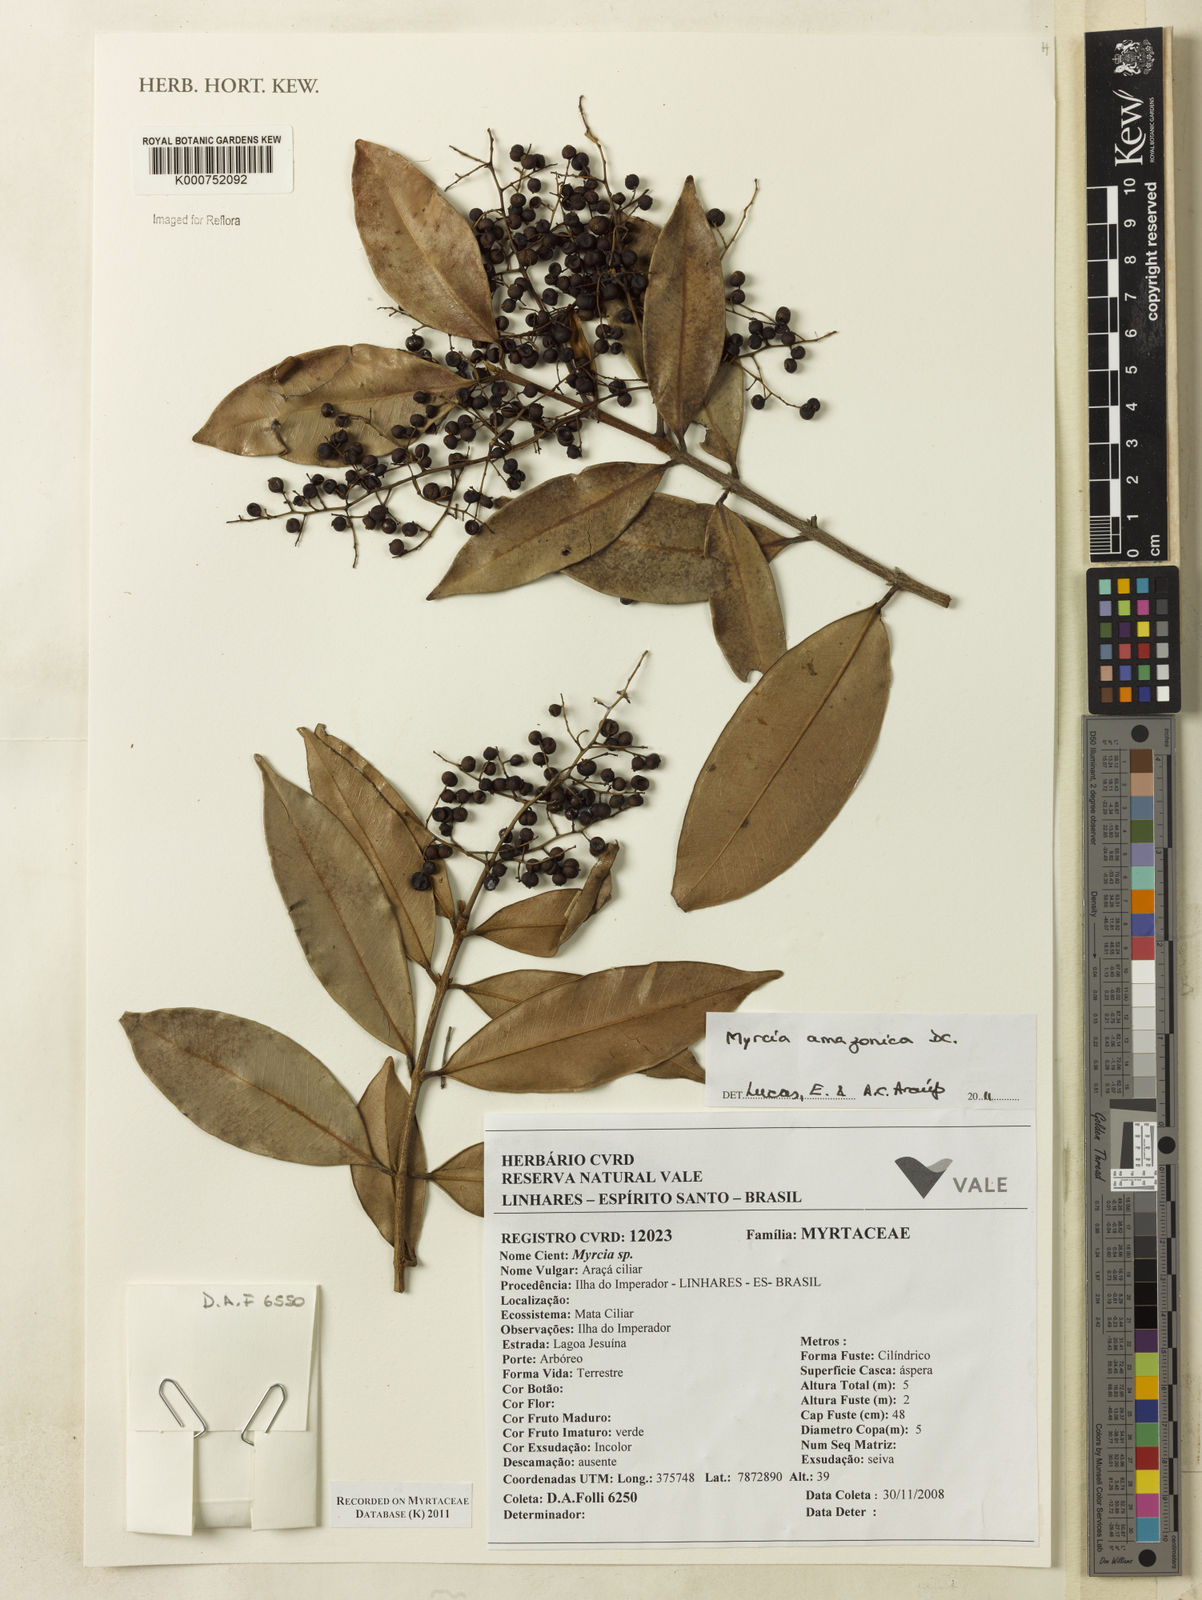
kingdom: Plantae
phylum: Tracheophyta
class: Magnoliopsida
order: Myrtales
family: Myrtaceae
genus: Myrcia
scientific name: Myrcia amazonica
